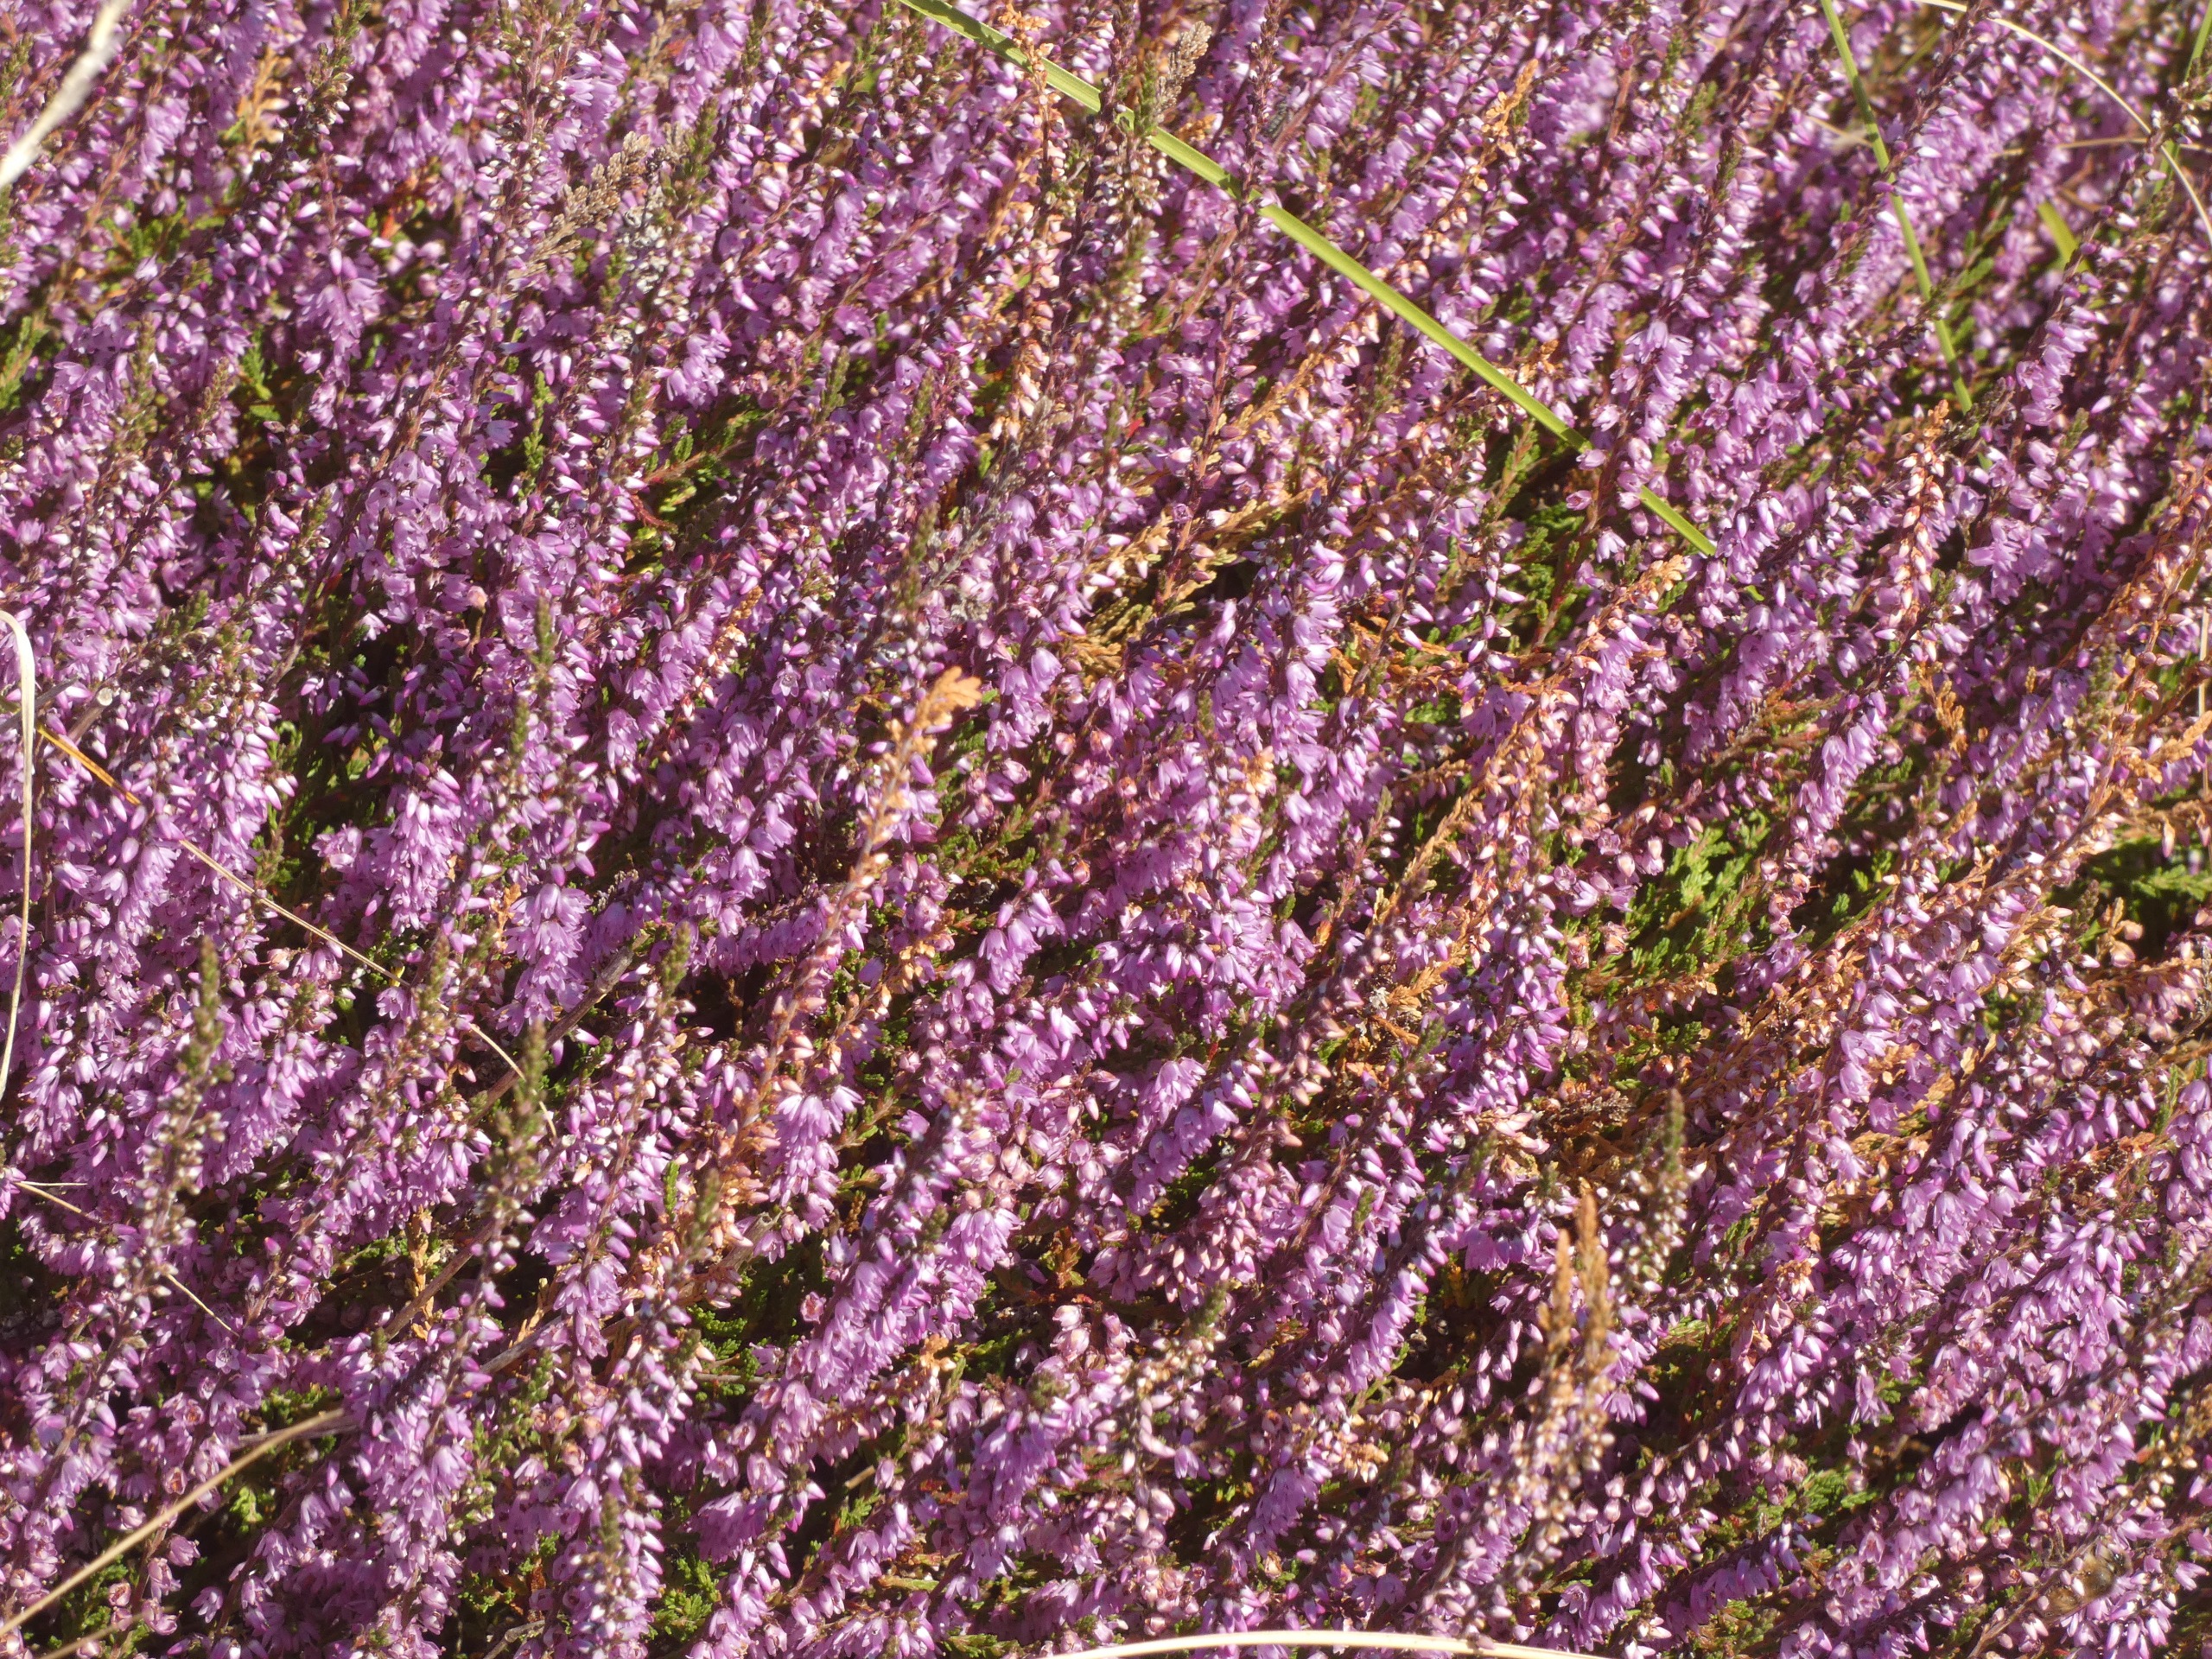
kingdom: Plantae
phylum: Tracheophyta
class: Magnoliopsida
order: Ericales
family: Ericaceae
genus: Calluna
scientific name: Calluna vulgaris
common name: Hedelyng
